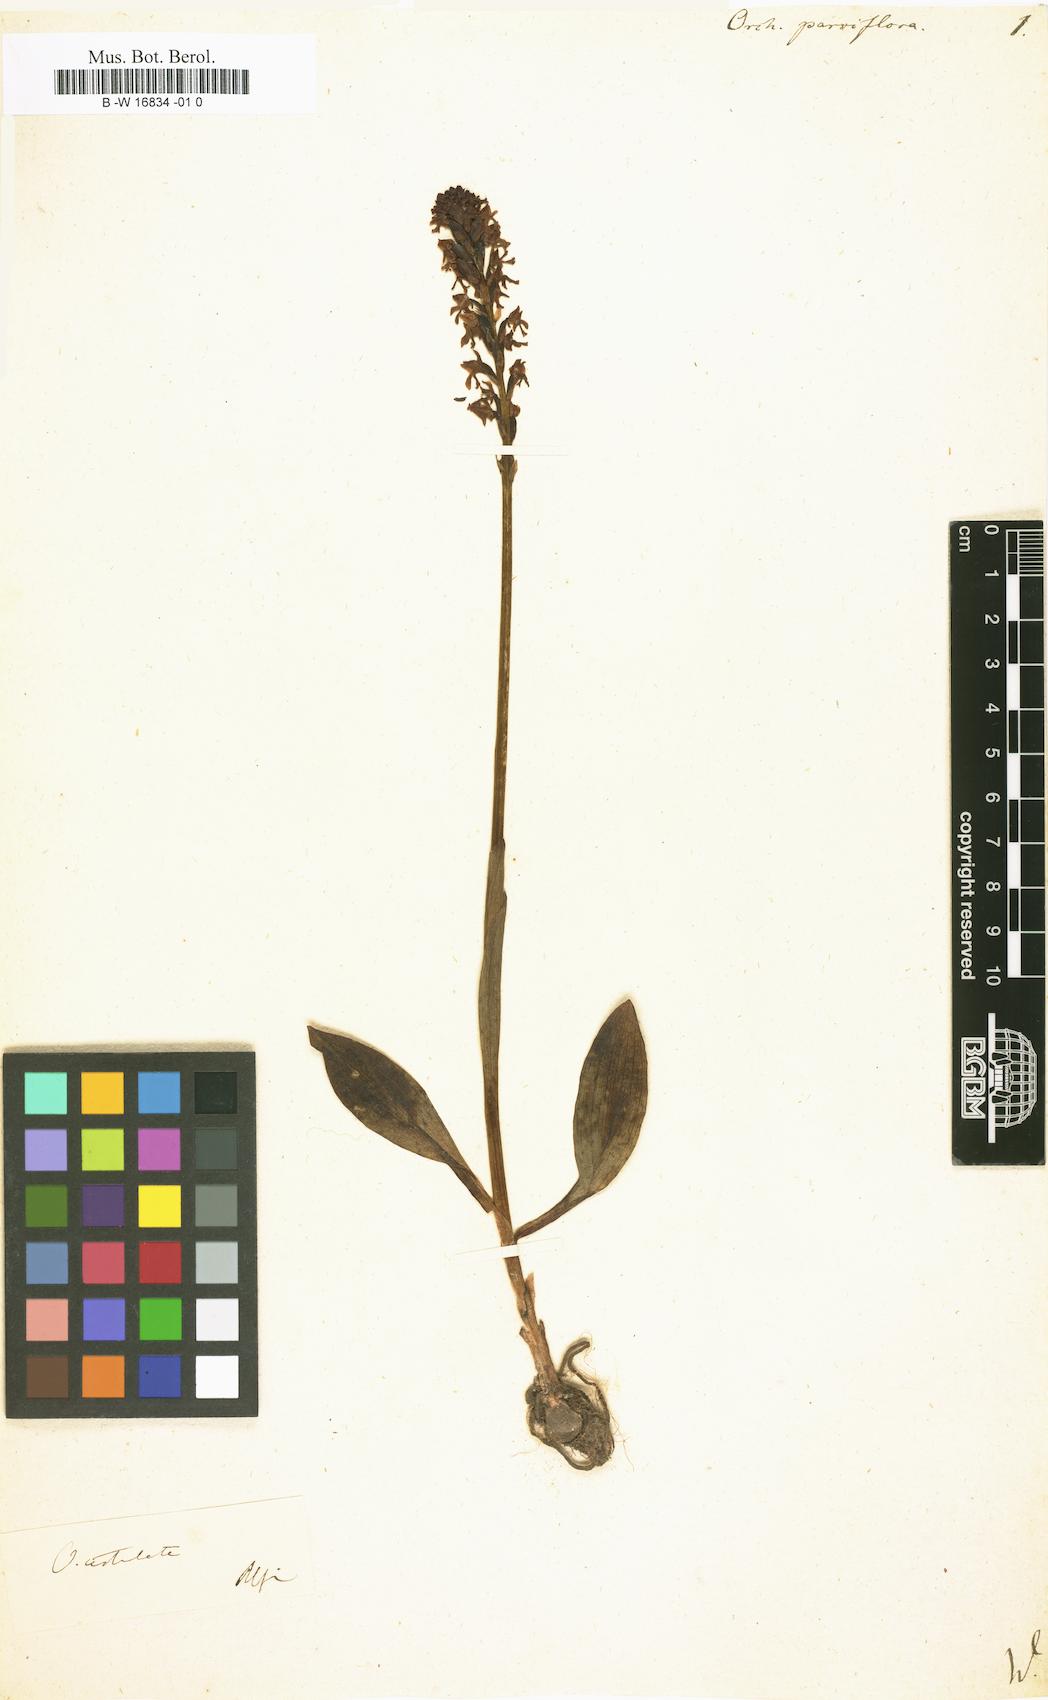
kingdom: Plantae
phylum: Tracheophyta
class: Liliopsida
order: Asparagales
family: Orchidaceae
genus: Orchis
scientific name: Orchis parviflora
